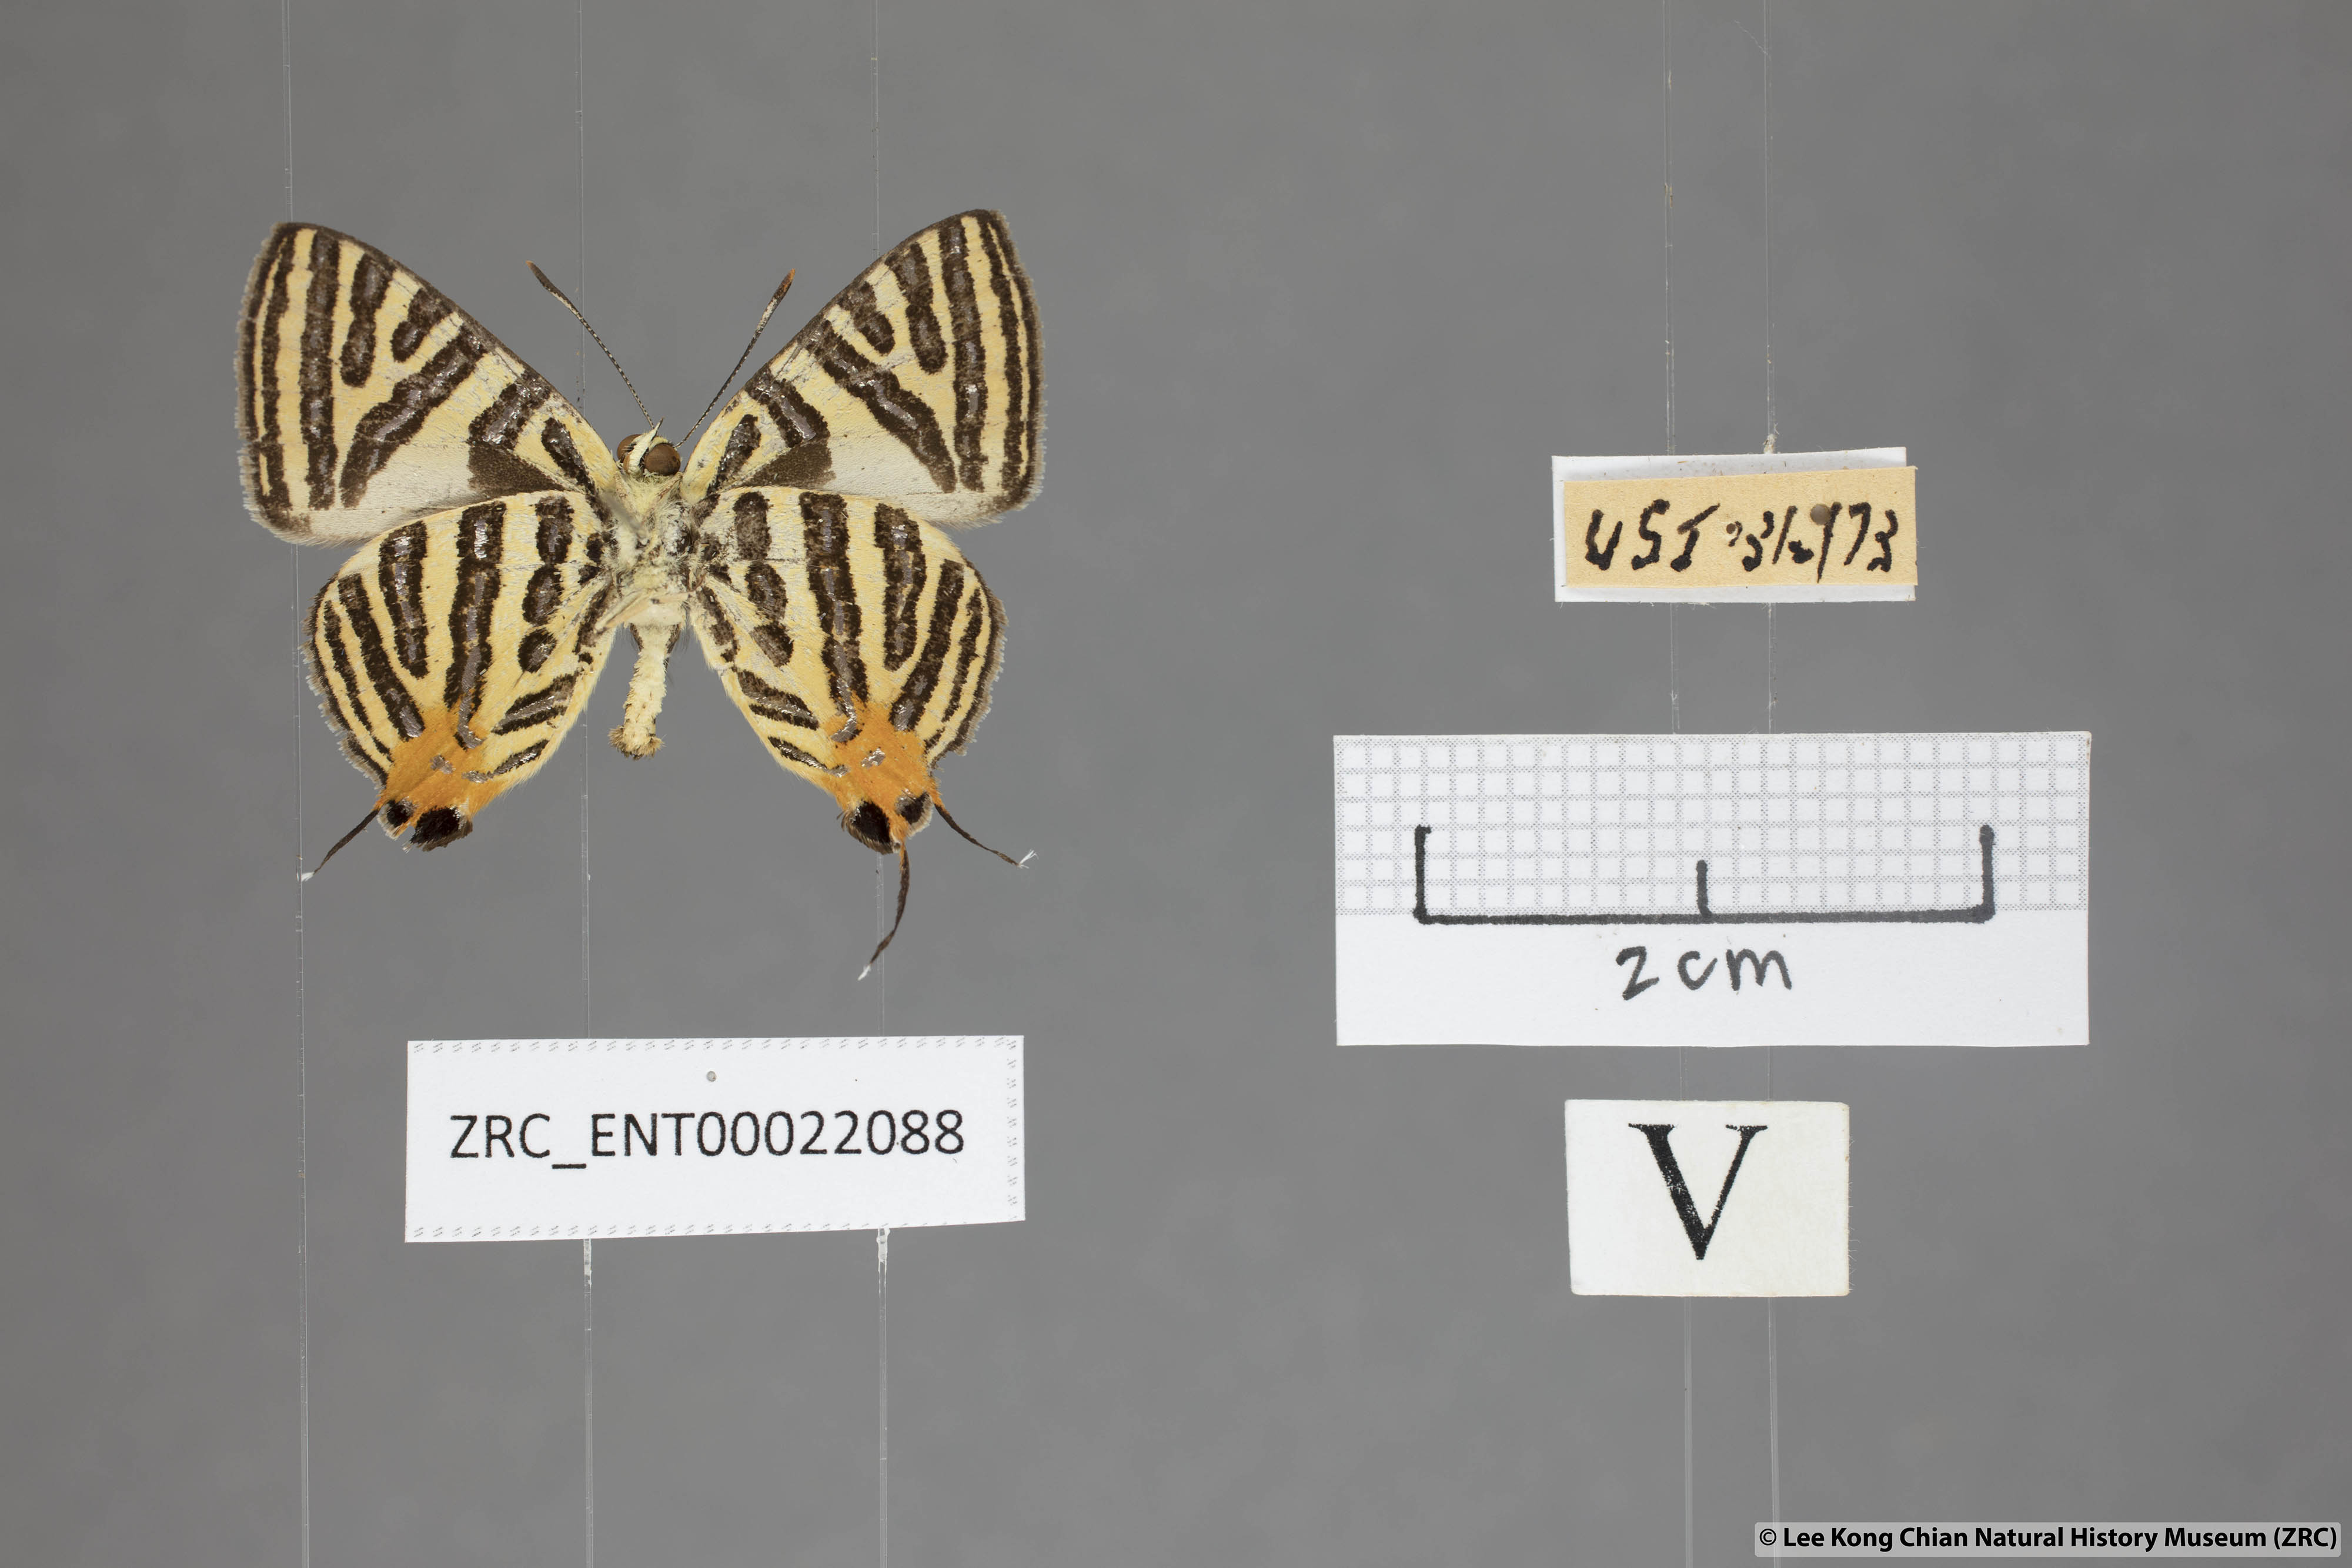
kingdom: Animalia
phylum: Arthropoda
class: Insecta
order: Lepidoptera
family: Lycaenidae
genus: Spindasis
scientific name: Spindasis syama
